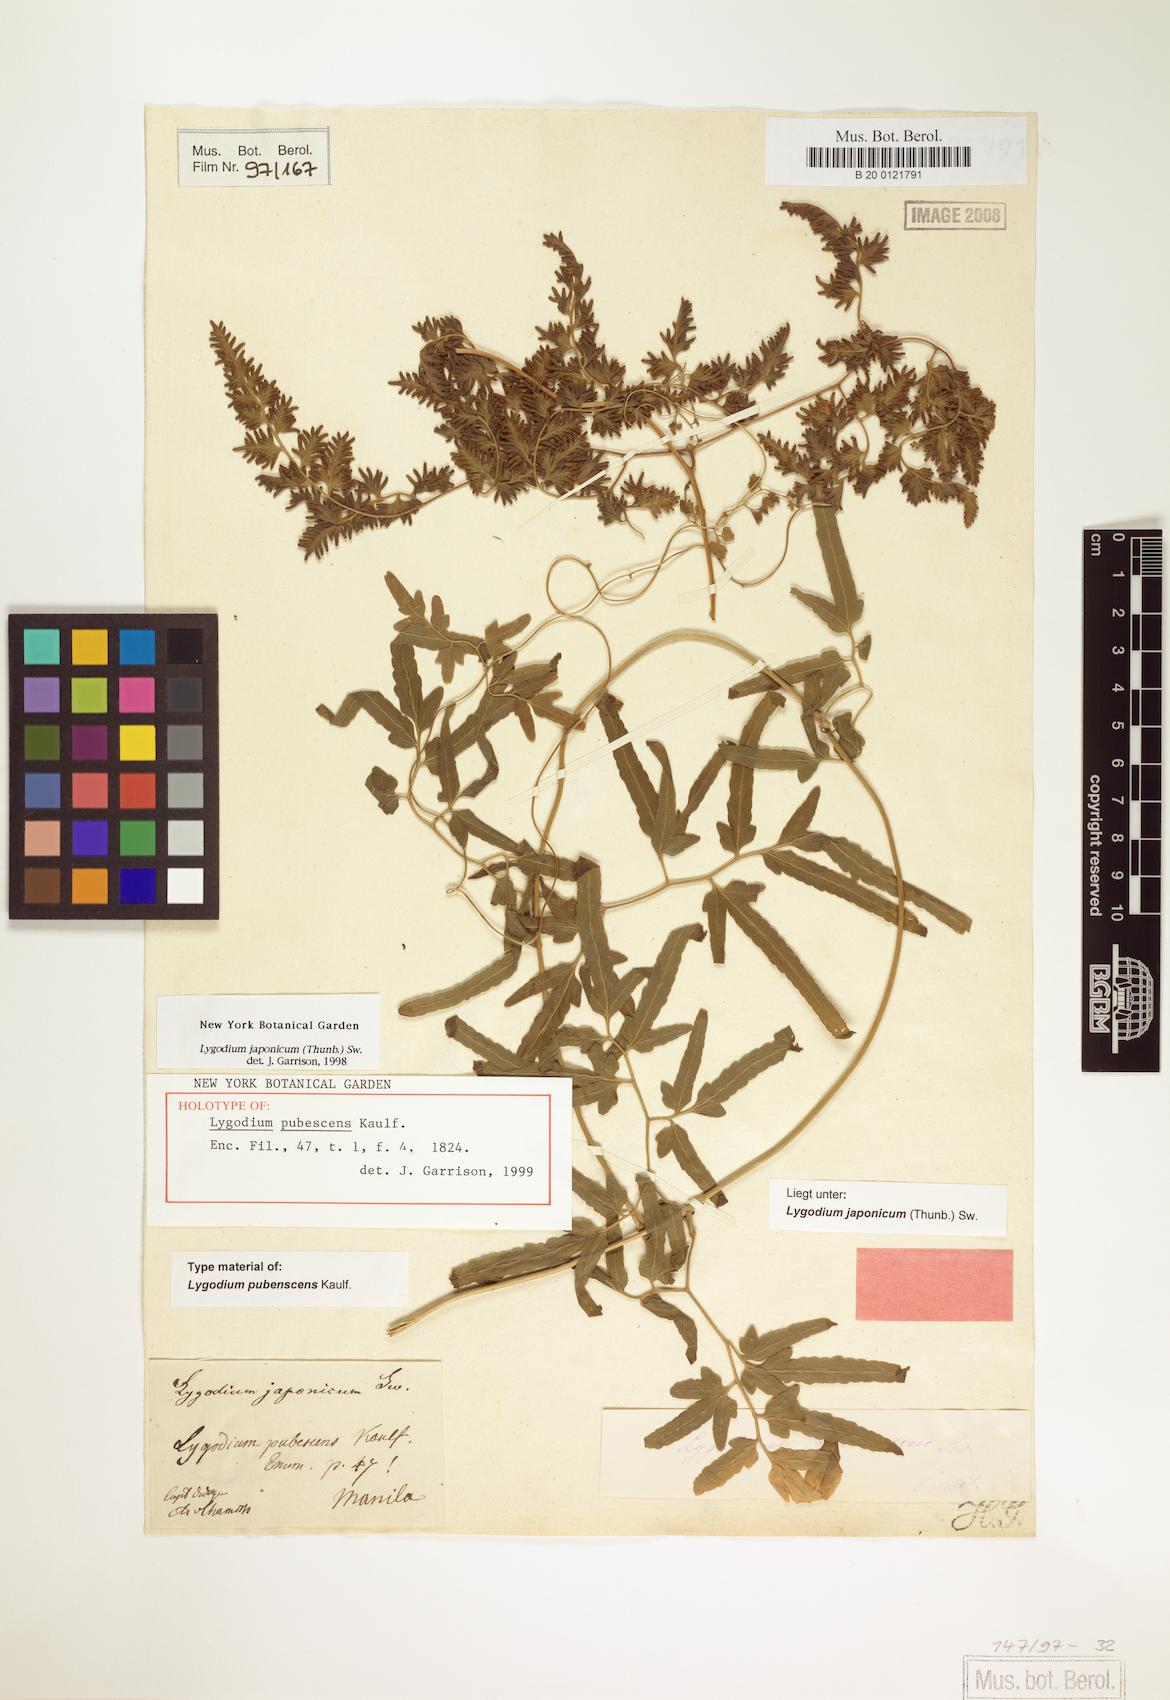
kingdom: Plantae
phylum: Tracheophyta
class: Polypodiopsida
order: Schizaeales
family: Lygodiaceae
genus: Lygodium
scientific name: Lygodium japonicum
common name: Japanese climbing fern
